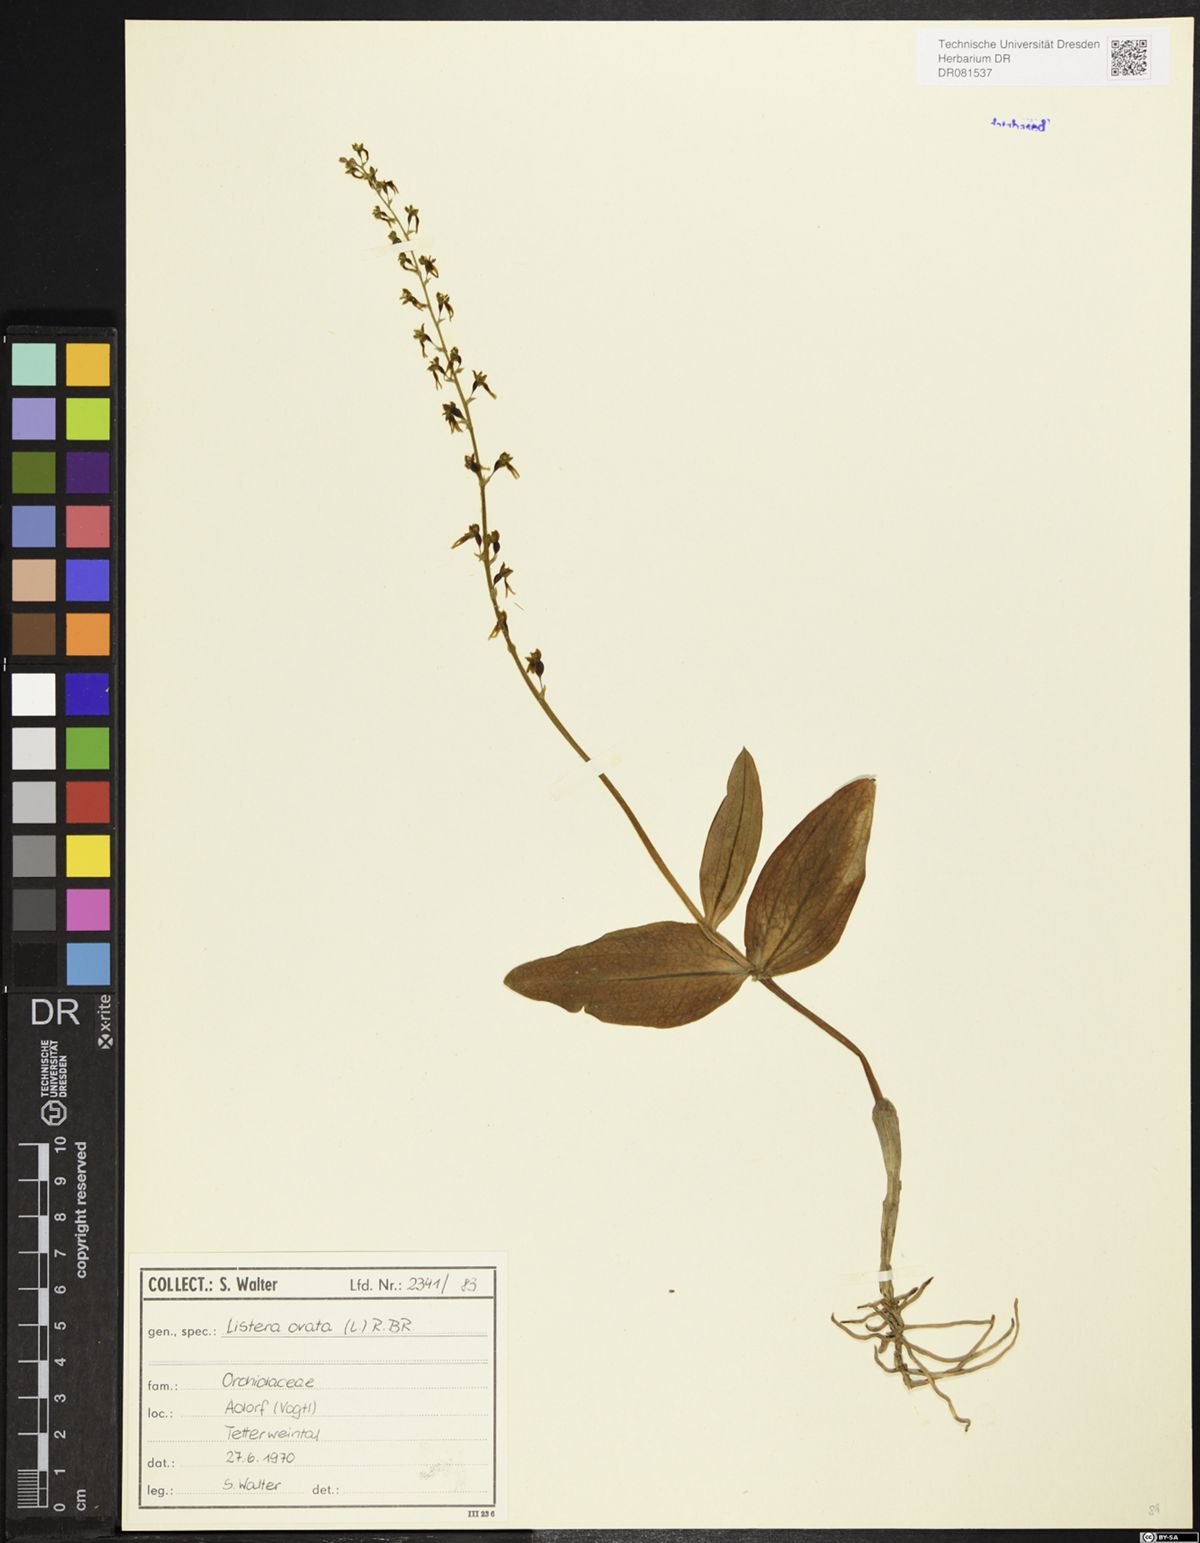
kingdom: Plantae
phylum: Tracheophyta
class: Liliopsida
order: Asparagales
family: Orchidaceae
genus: Neottia
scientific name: Neottia ovata
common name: Common twayblade
